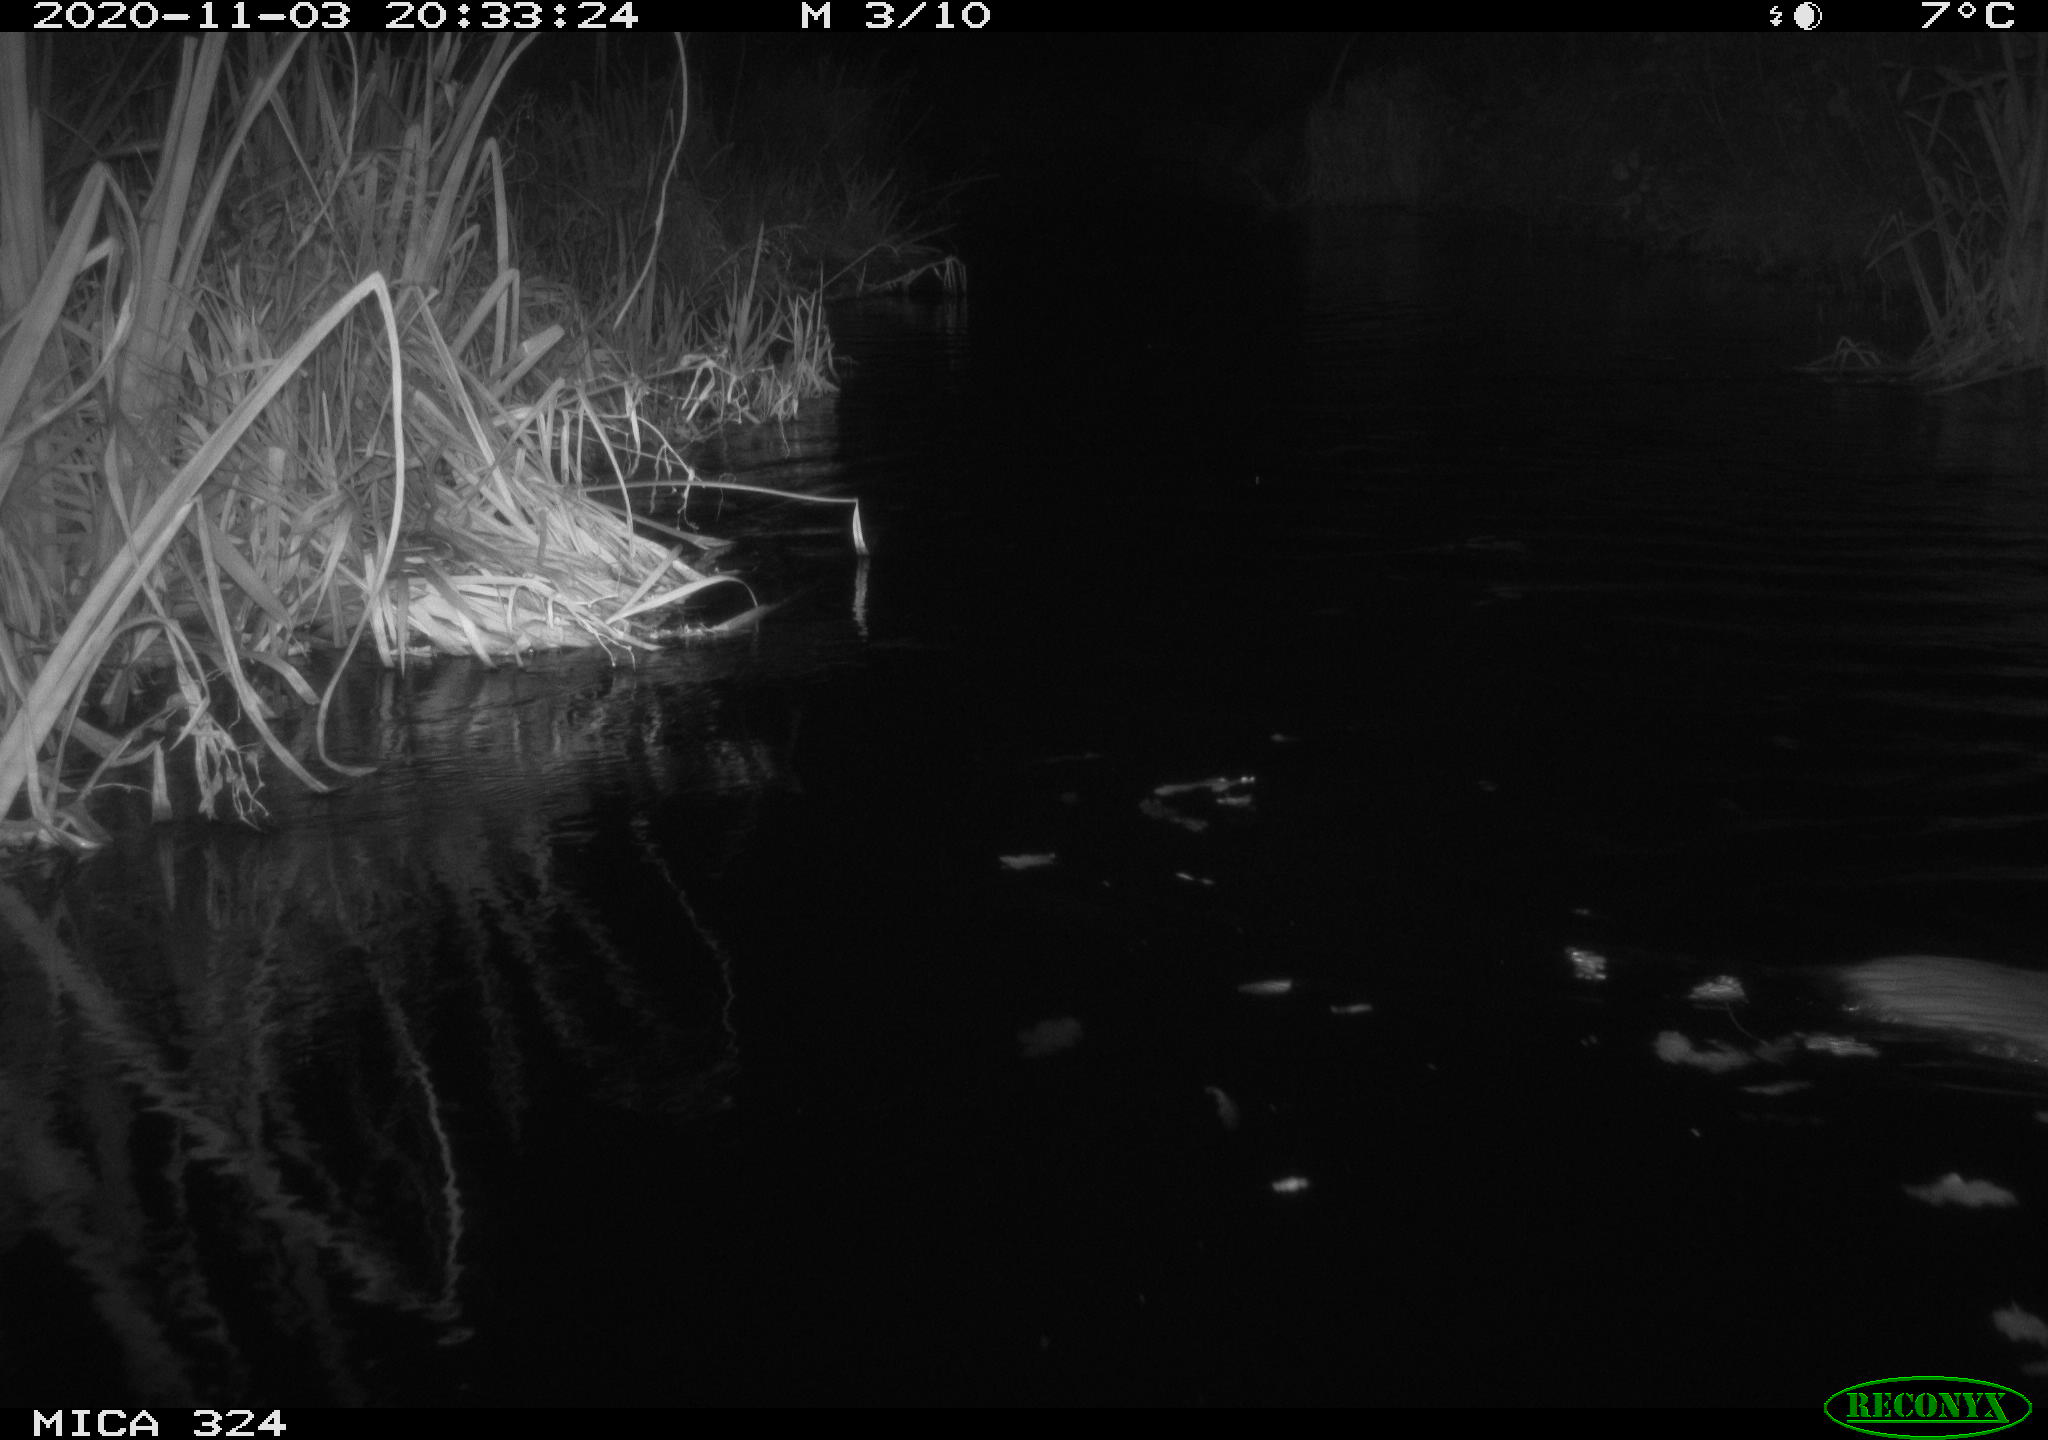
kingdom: Animalia
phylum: Chordata
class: Mammalia
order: Rodentia
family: Myocastoridae
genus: Myocastor
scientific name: Myocastor coypus
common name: Coypu
